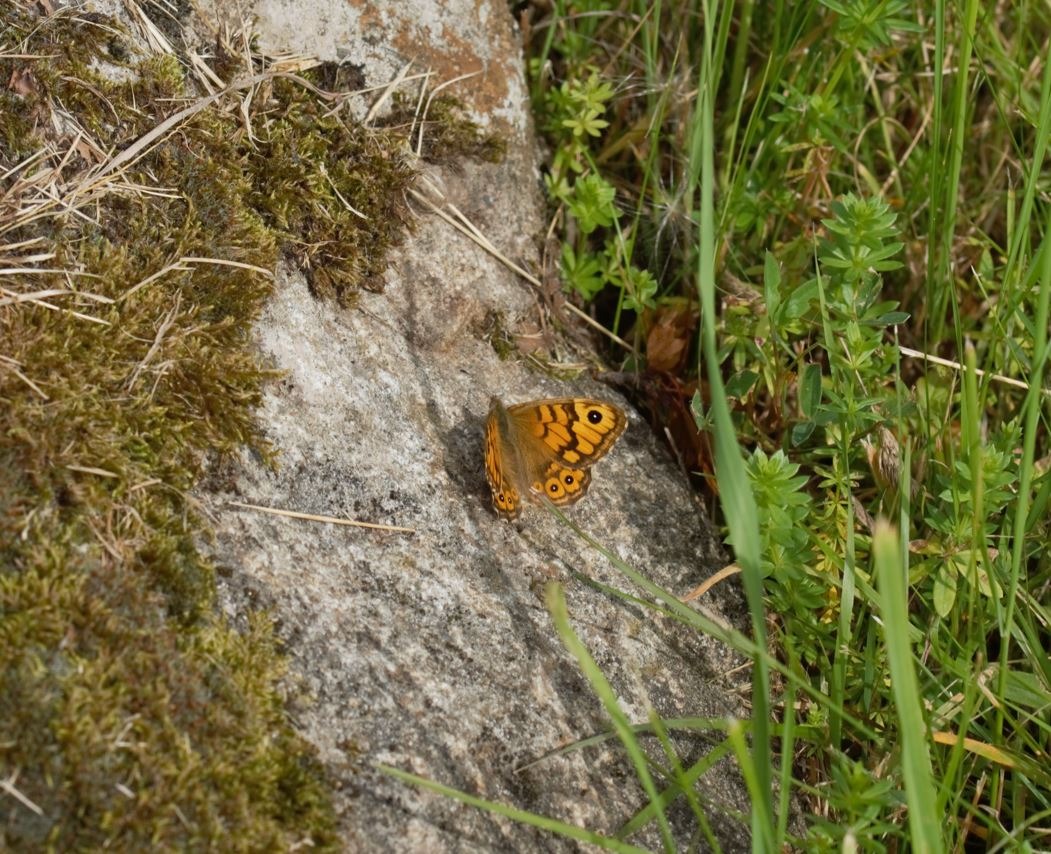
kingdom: Animalia
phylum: Arthropoda
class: Insecta
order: Lepidoptera
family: Nymphalidae
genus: Pararge
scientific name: Pararge Lasiommata megera
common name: Vejrandøje
